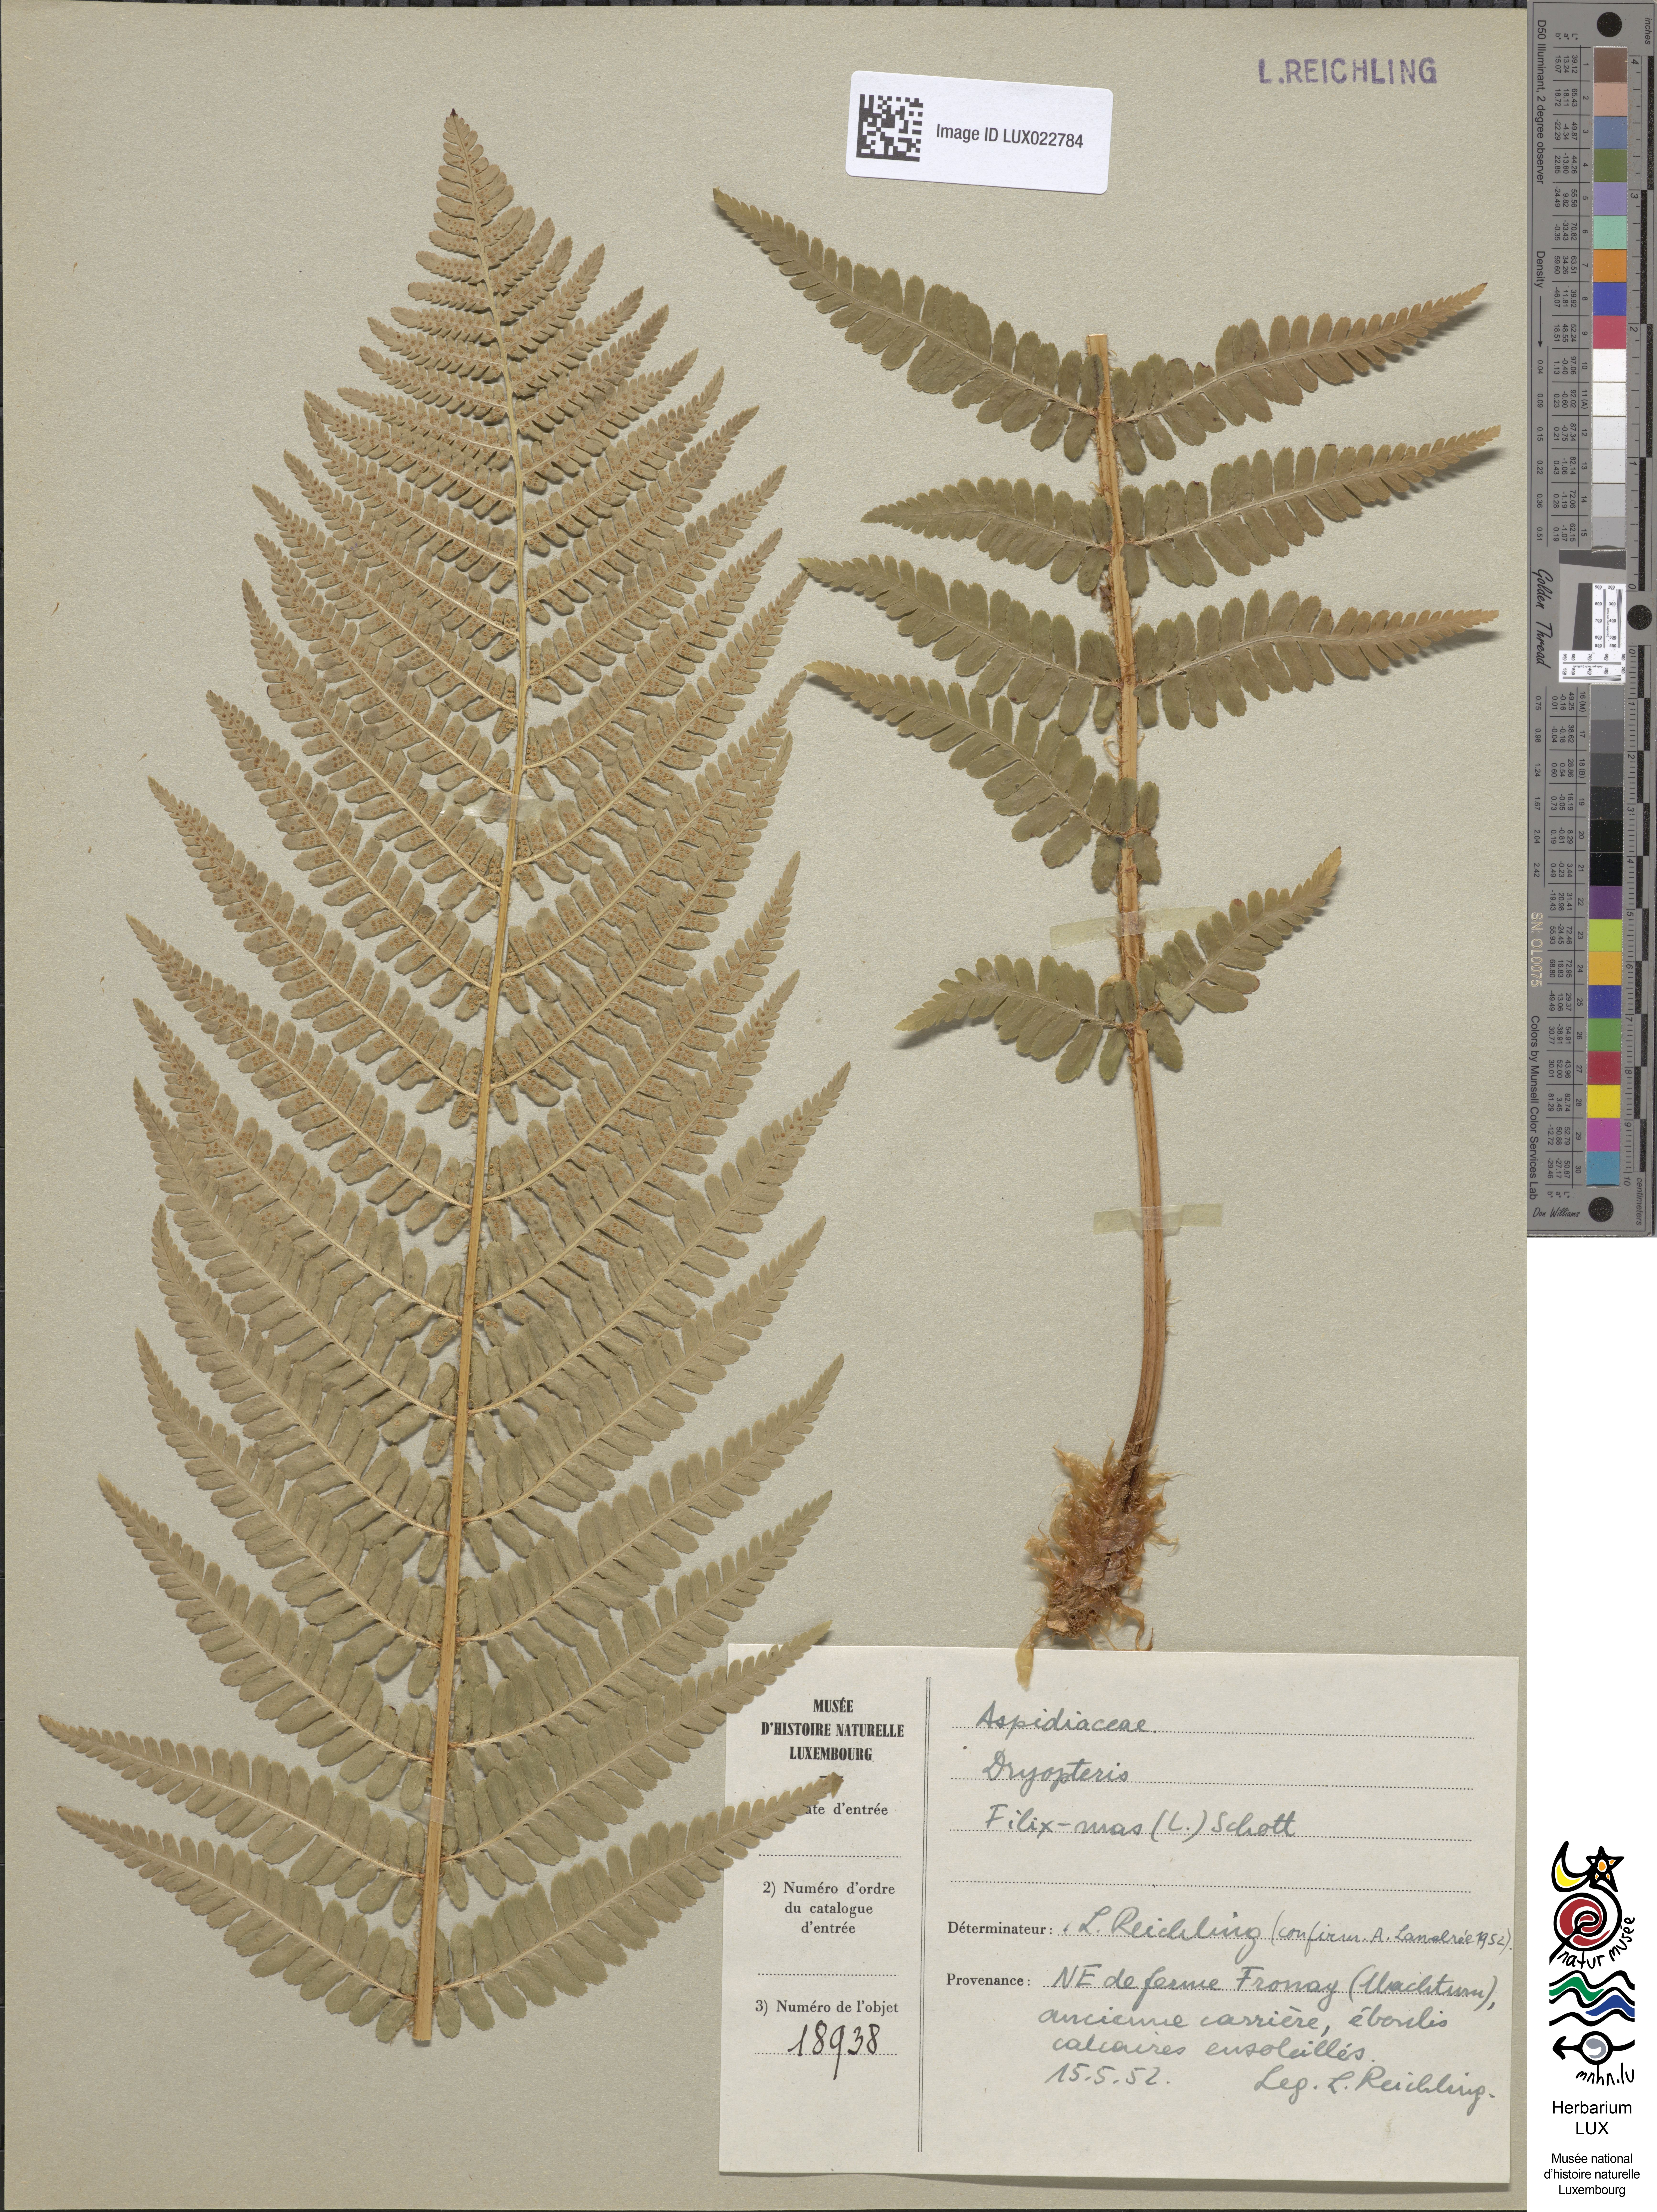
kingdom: Plantae
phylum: Tracheophyta
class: Polypodiopsida
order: Polypodiales
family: Dryopteridaceae
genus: Dryopteris
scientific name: Dryopteris filix-mas
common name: Male fern
